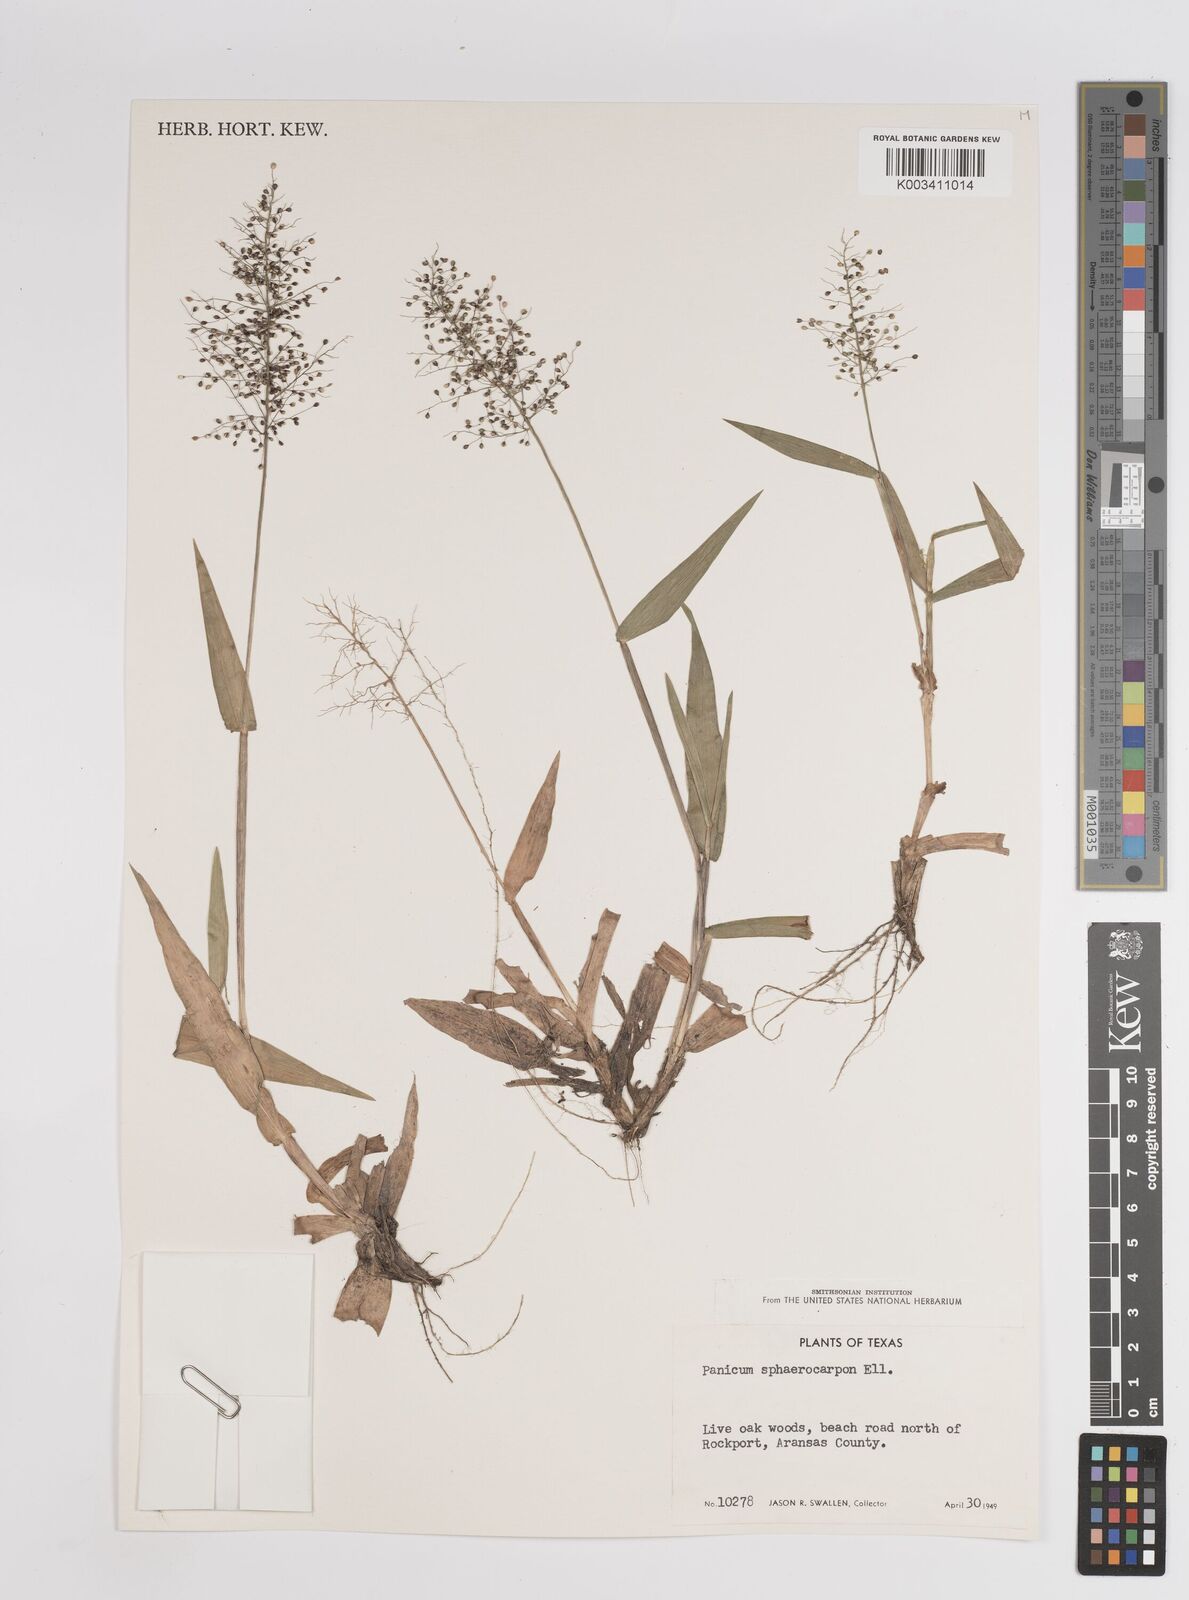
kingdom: Plantae
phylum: Tracheophyta
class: Liliopsida
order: Poales
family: Poaceae
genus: Setaria
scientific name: Setaria tenax
